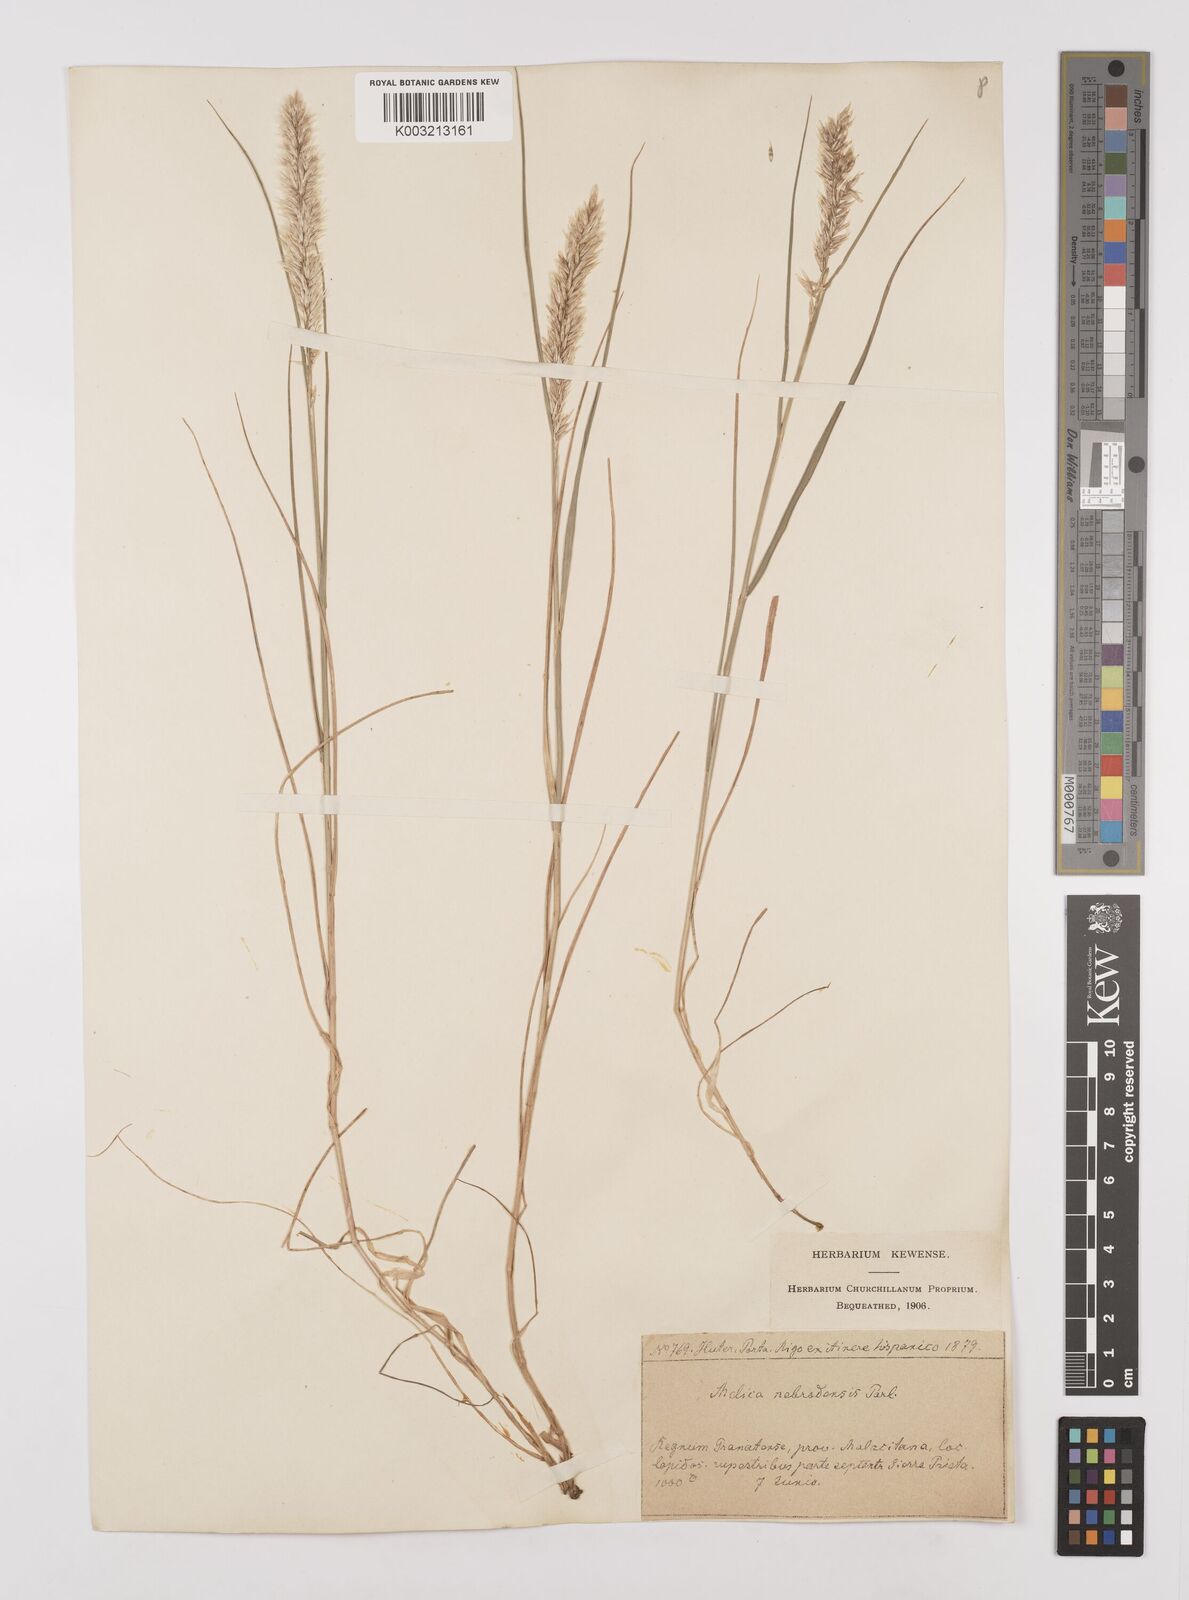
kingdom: Plantae
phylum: Tracheophyta
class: Liliopsida
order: Poales
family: Poaceae
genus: Melica
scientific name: Melica ciliata
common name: Hairy melicgrass
